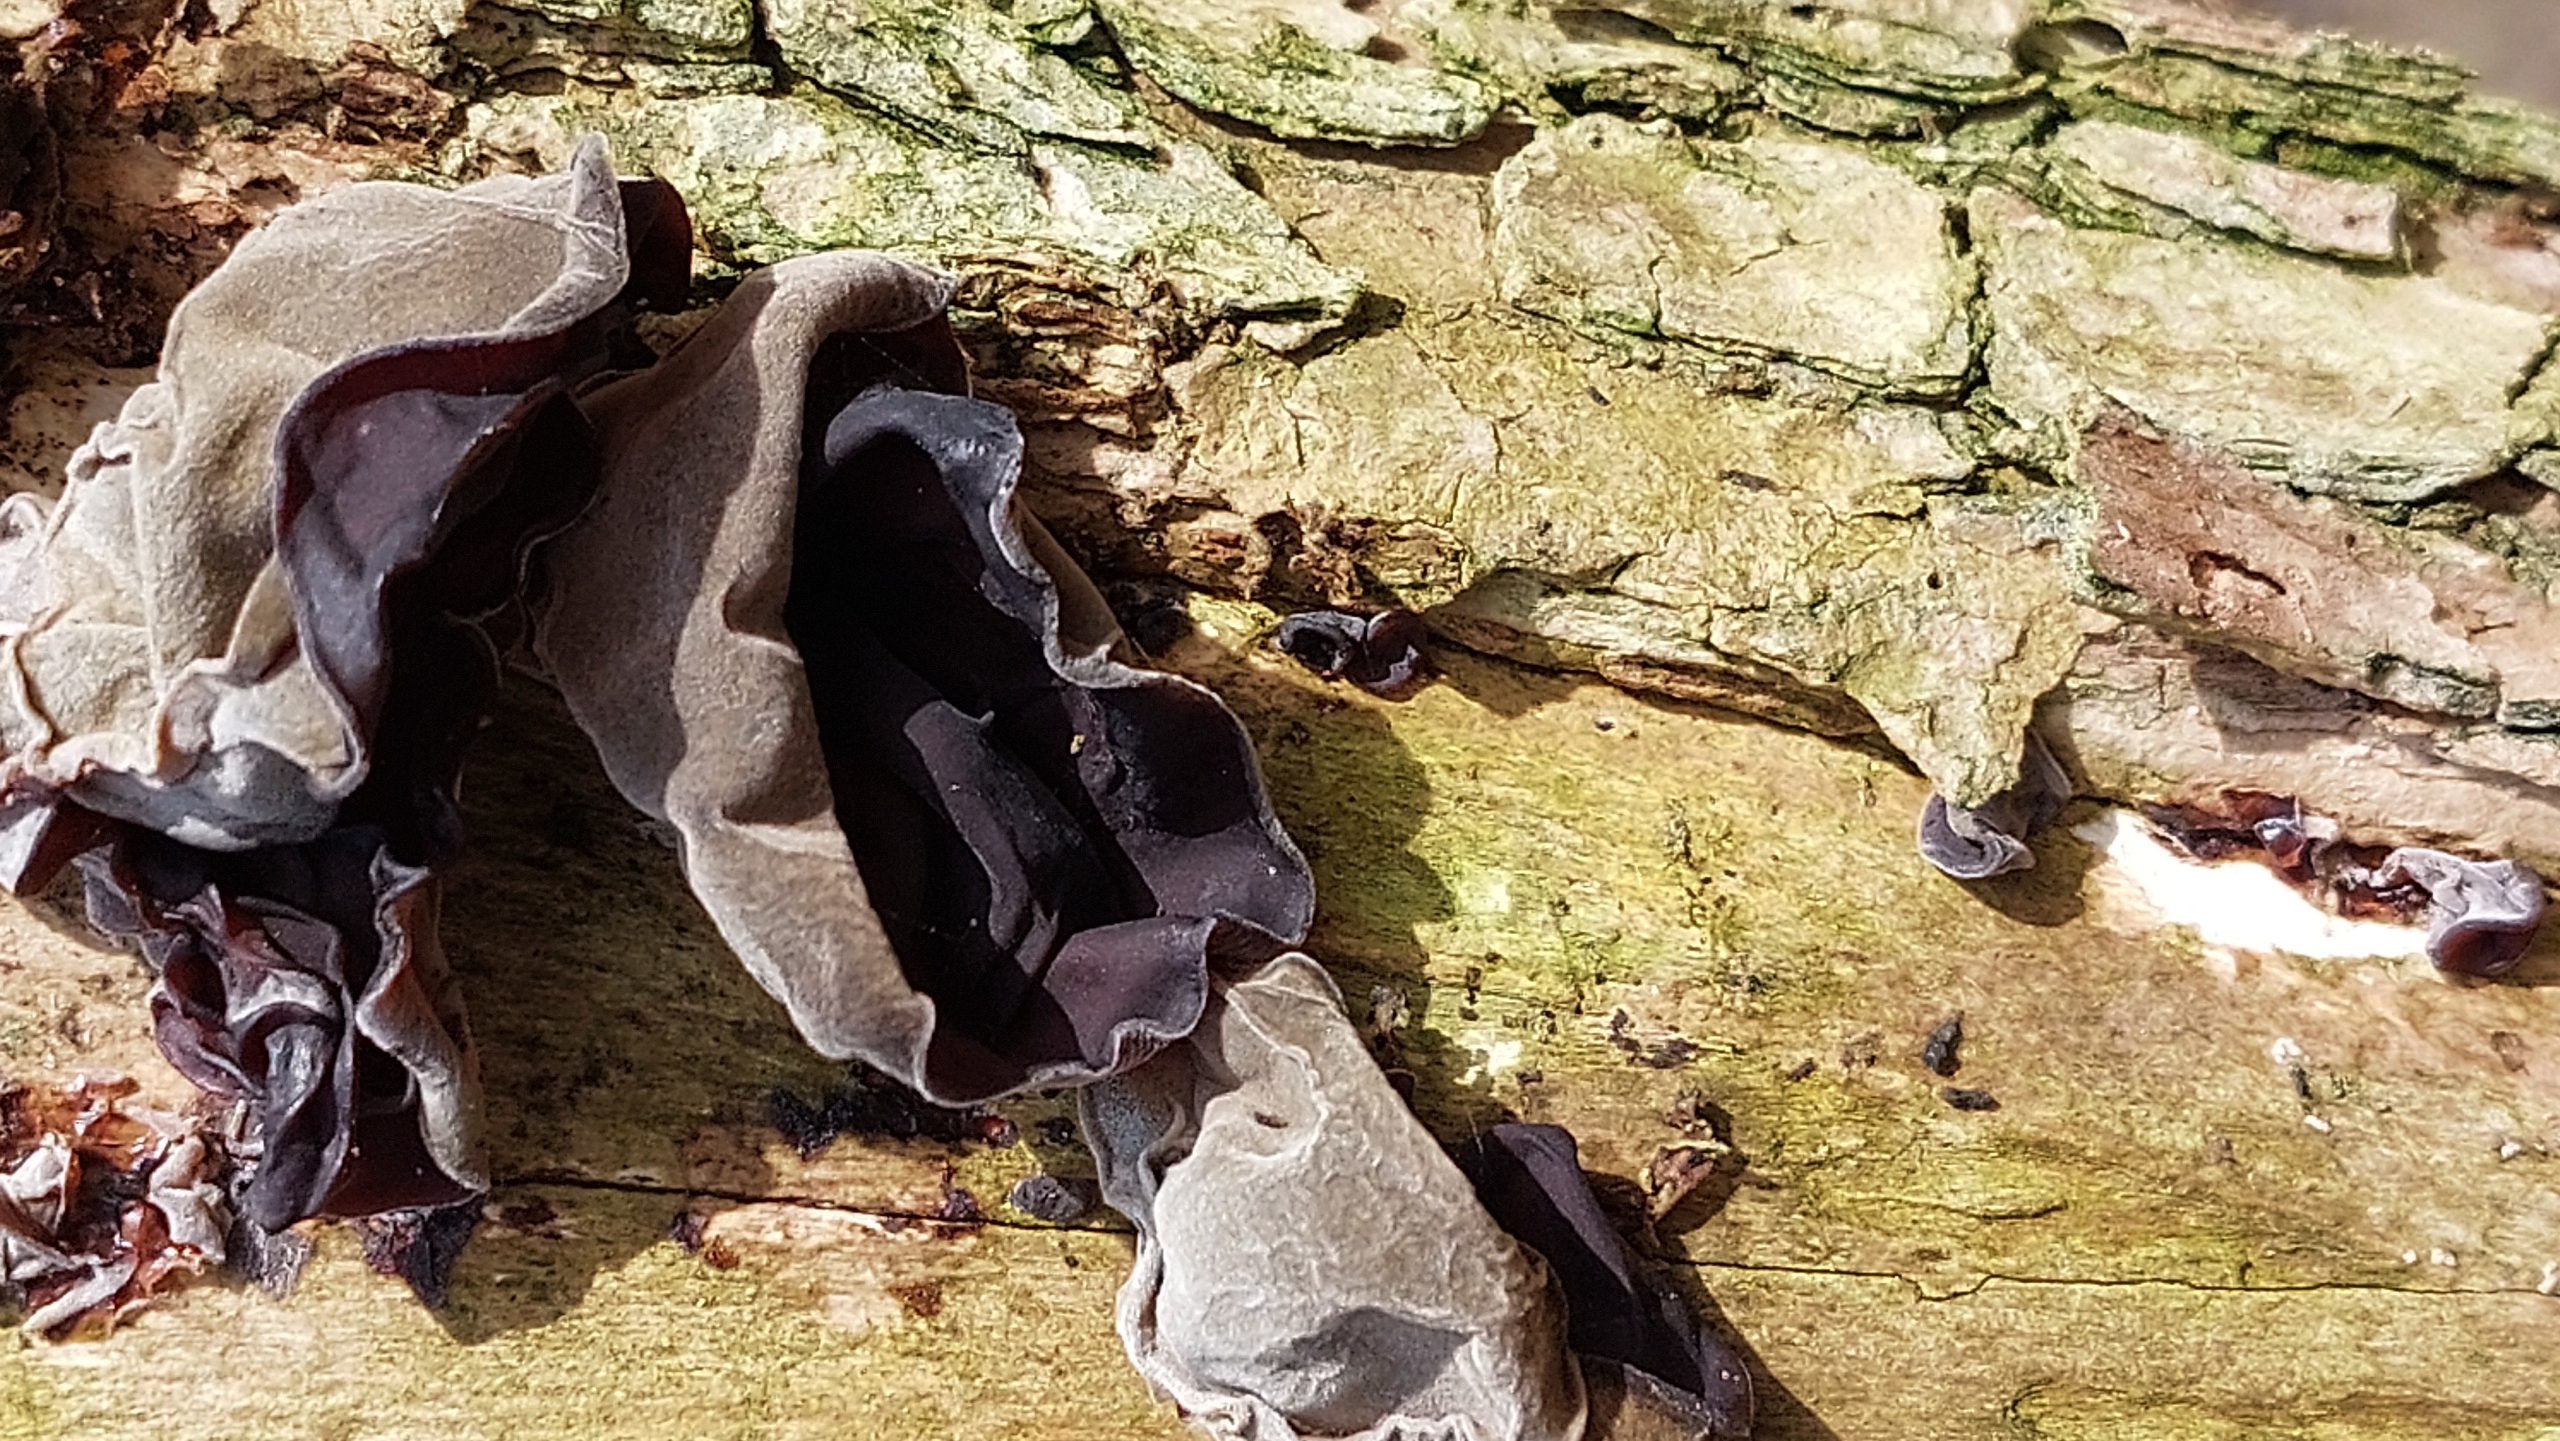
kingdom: Fungi
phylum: Basidiomycota
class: Agaricomycetes
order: Auriculariales
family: Auriculariaceae
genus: Auricularia
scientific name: Auricularia auricula-judae
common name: Almindelig judasøre
